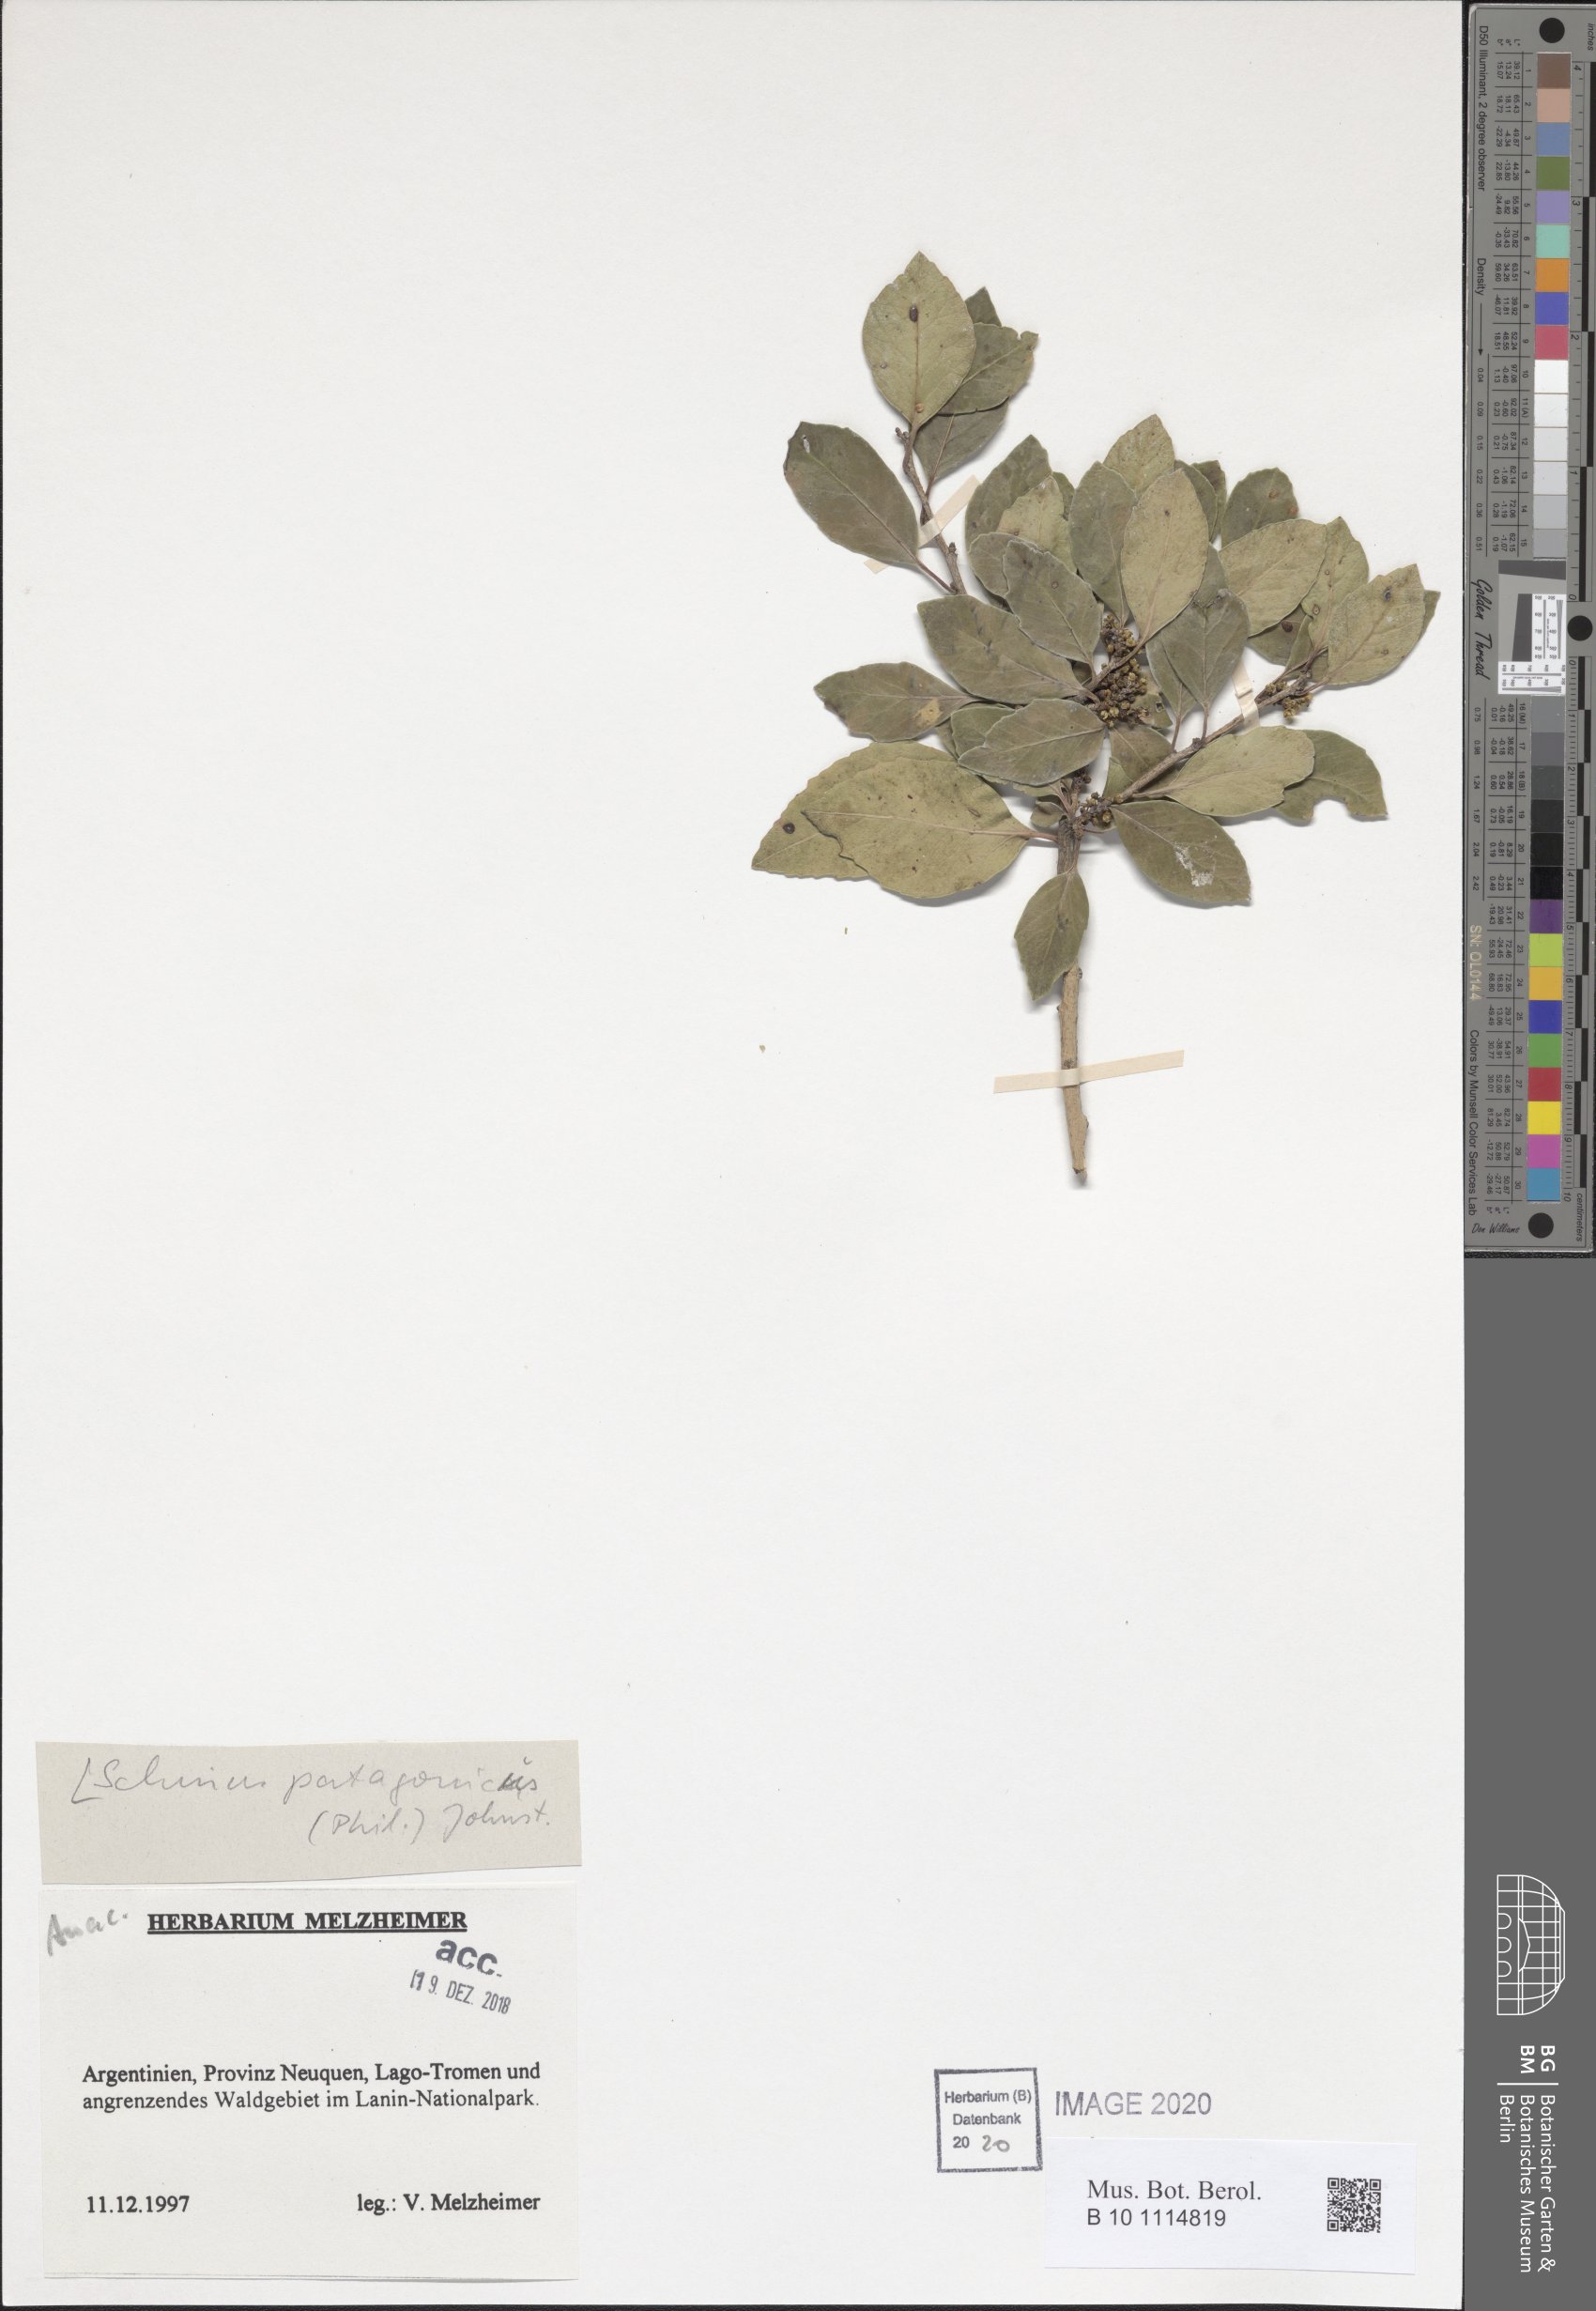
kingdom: Plantae
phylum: Tracheophyta
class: Magnoliopsida
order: Sapindales
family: Anacardiaceae
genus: Schinus
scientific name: Schinus patagonicus
